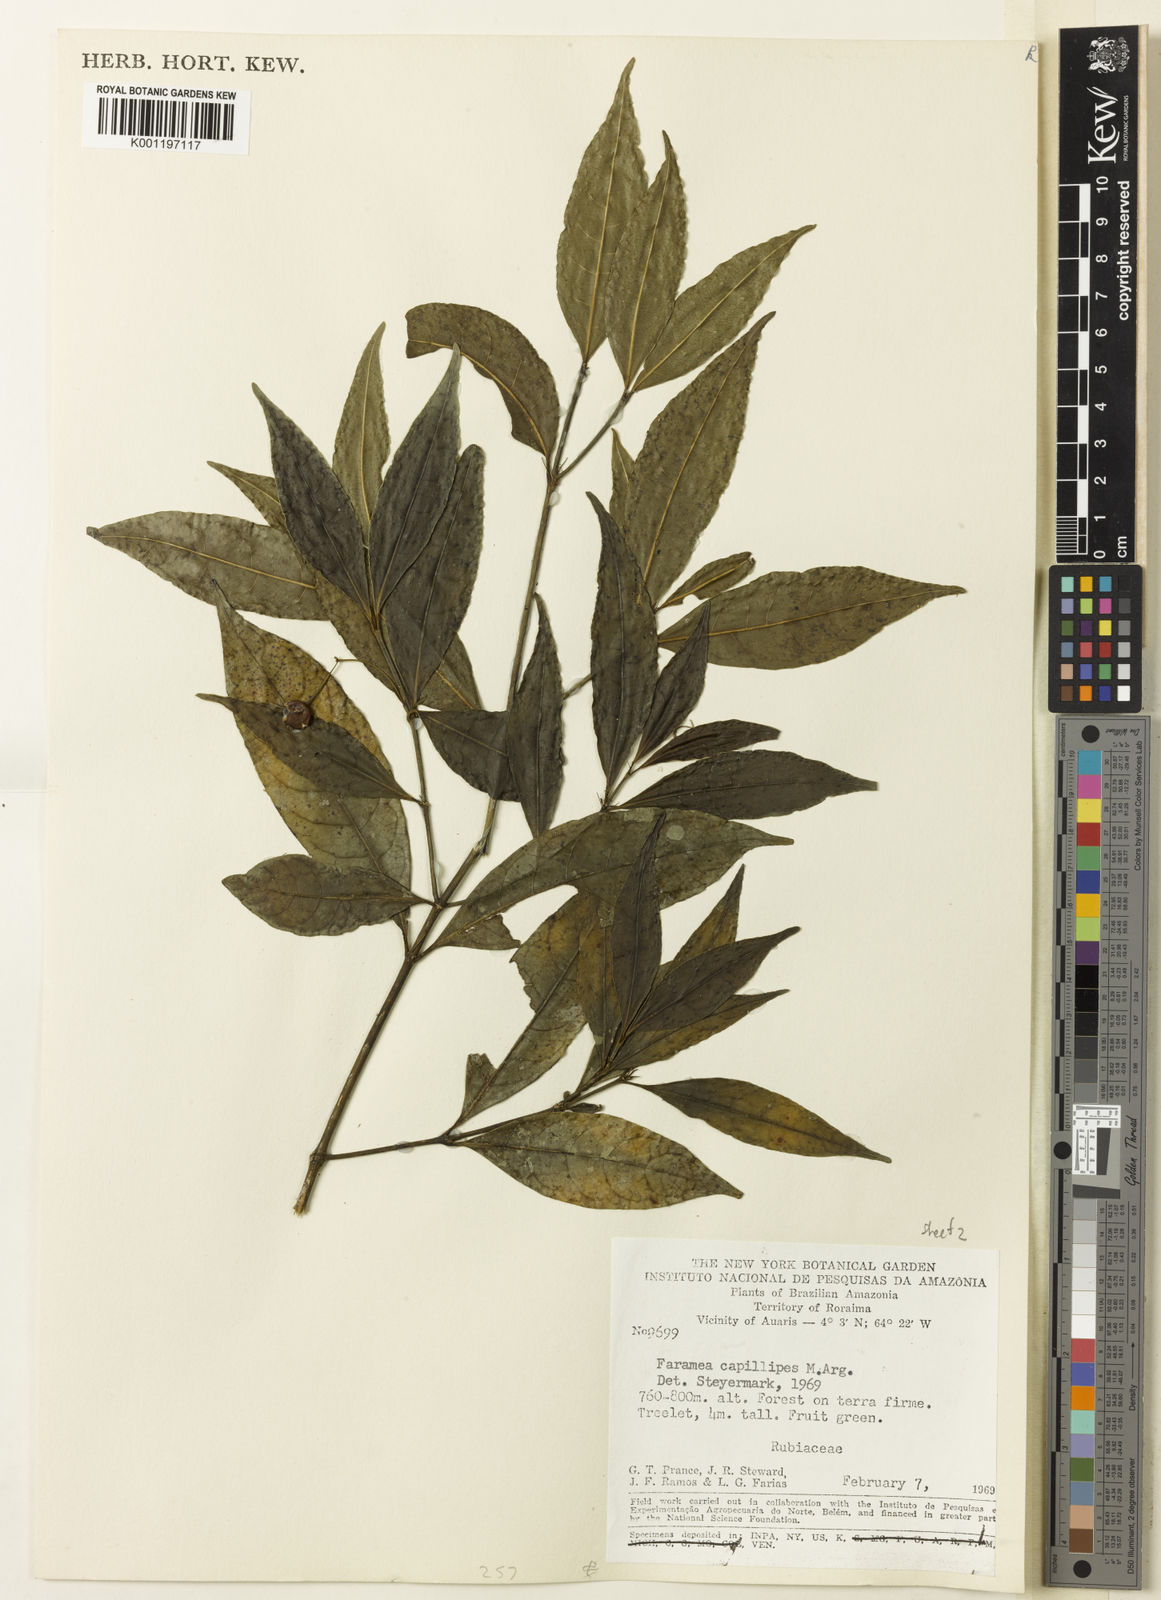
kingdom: Plantae
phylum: Tracheophyta
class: Magnoliopsida
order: Gentianales
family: Rubiaceae
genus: Faramea
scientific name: Faramea
